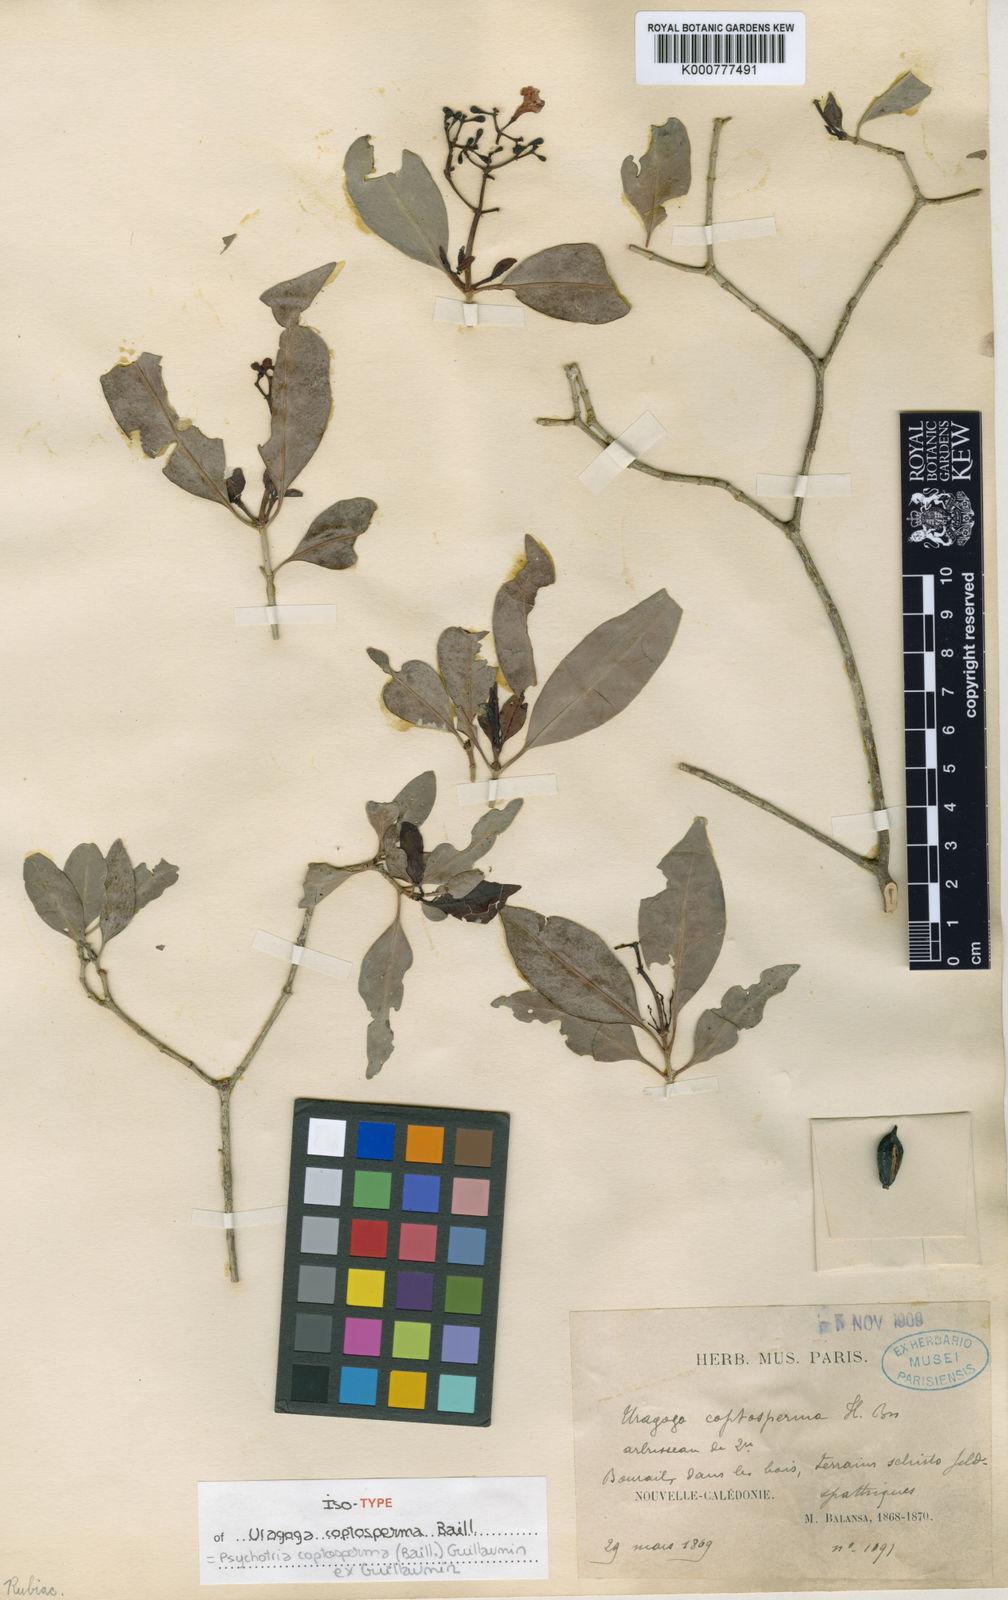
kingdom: Plantae
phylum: Tracheophyta
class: Magnoliopsida
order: Gentianales
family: Rubiaceae
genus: Psychotria
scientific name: Psychotria coptosperma
